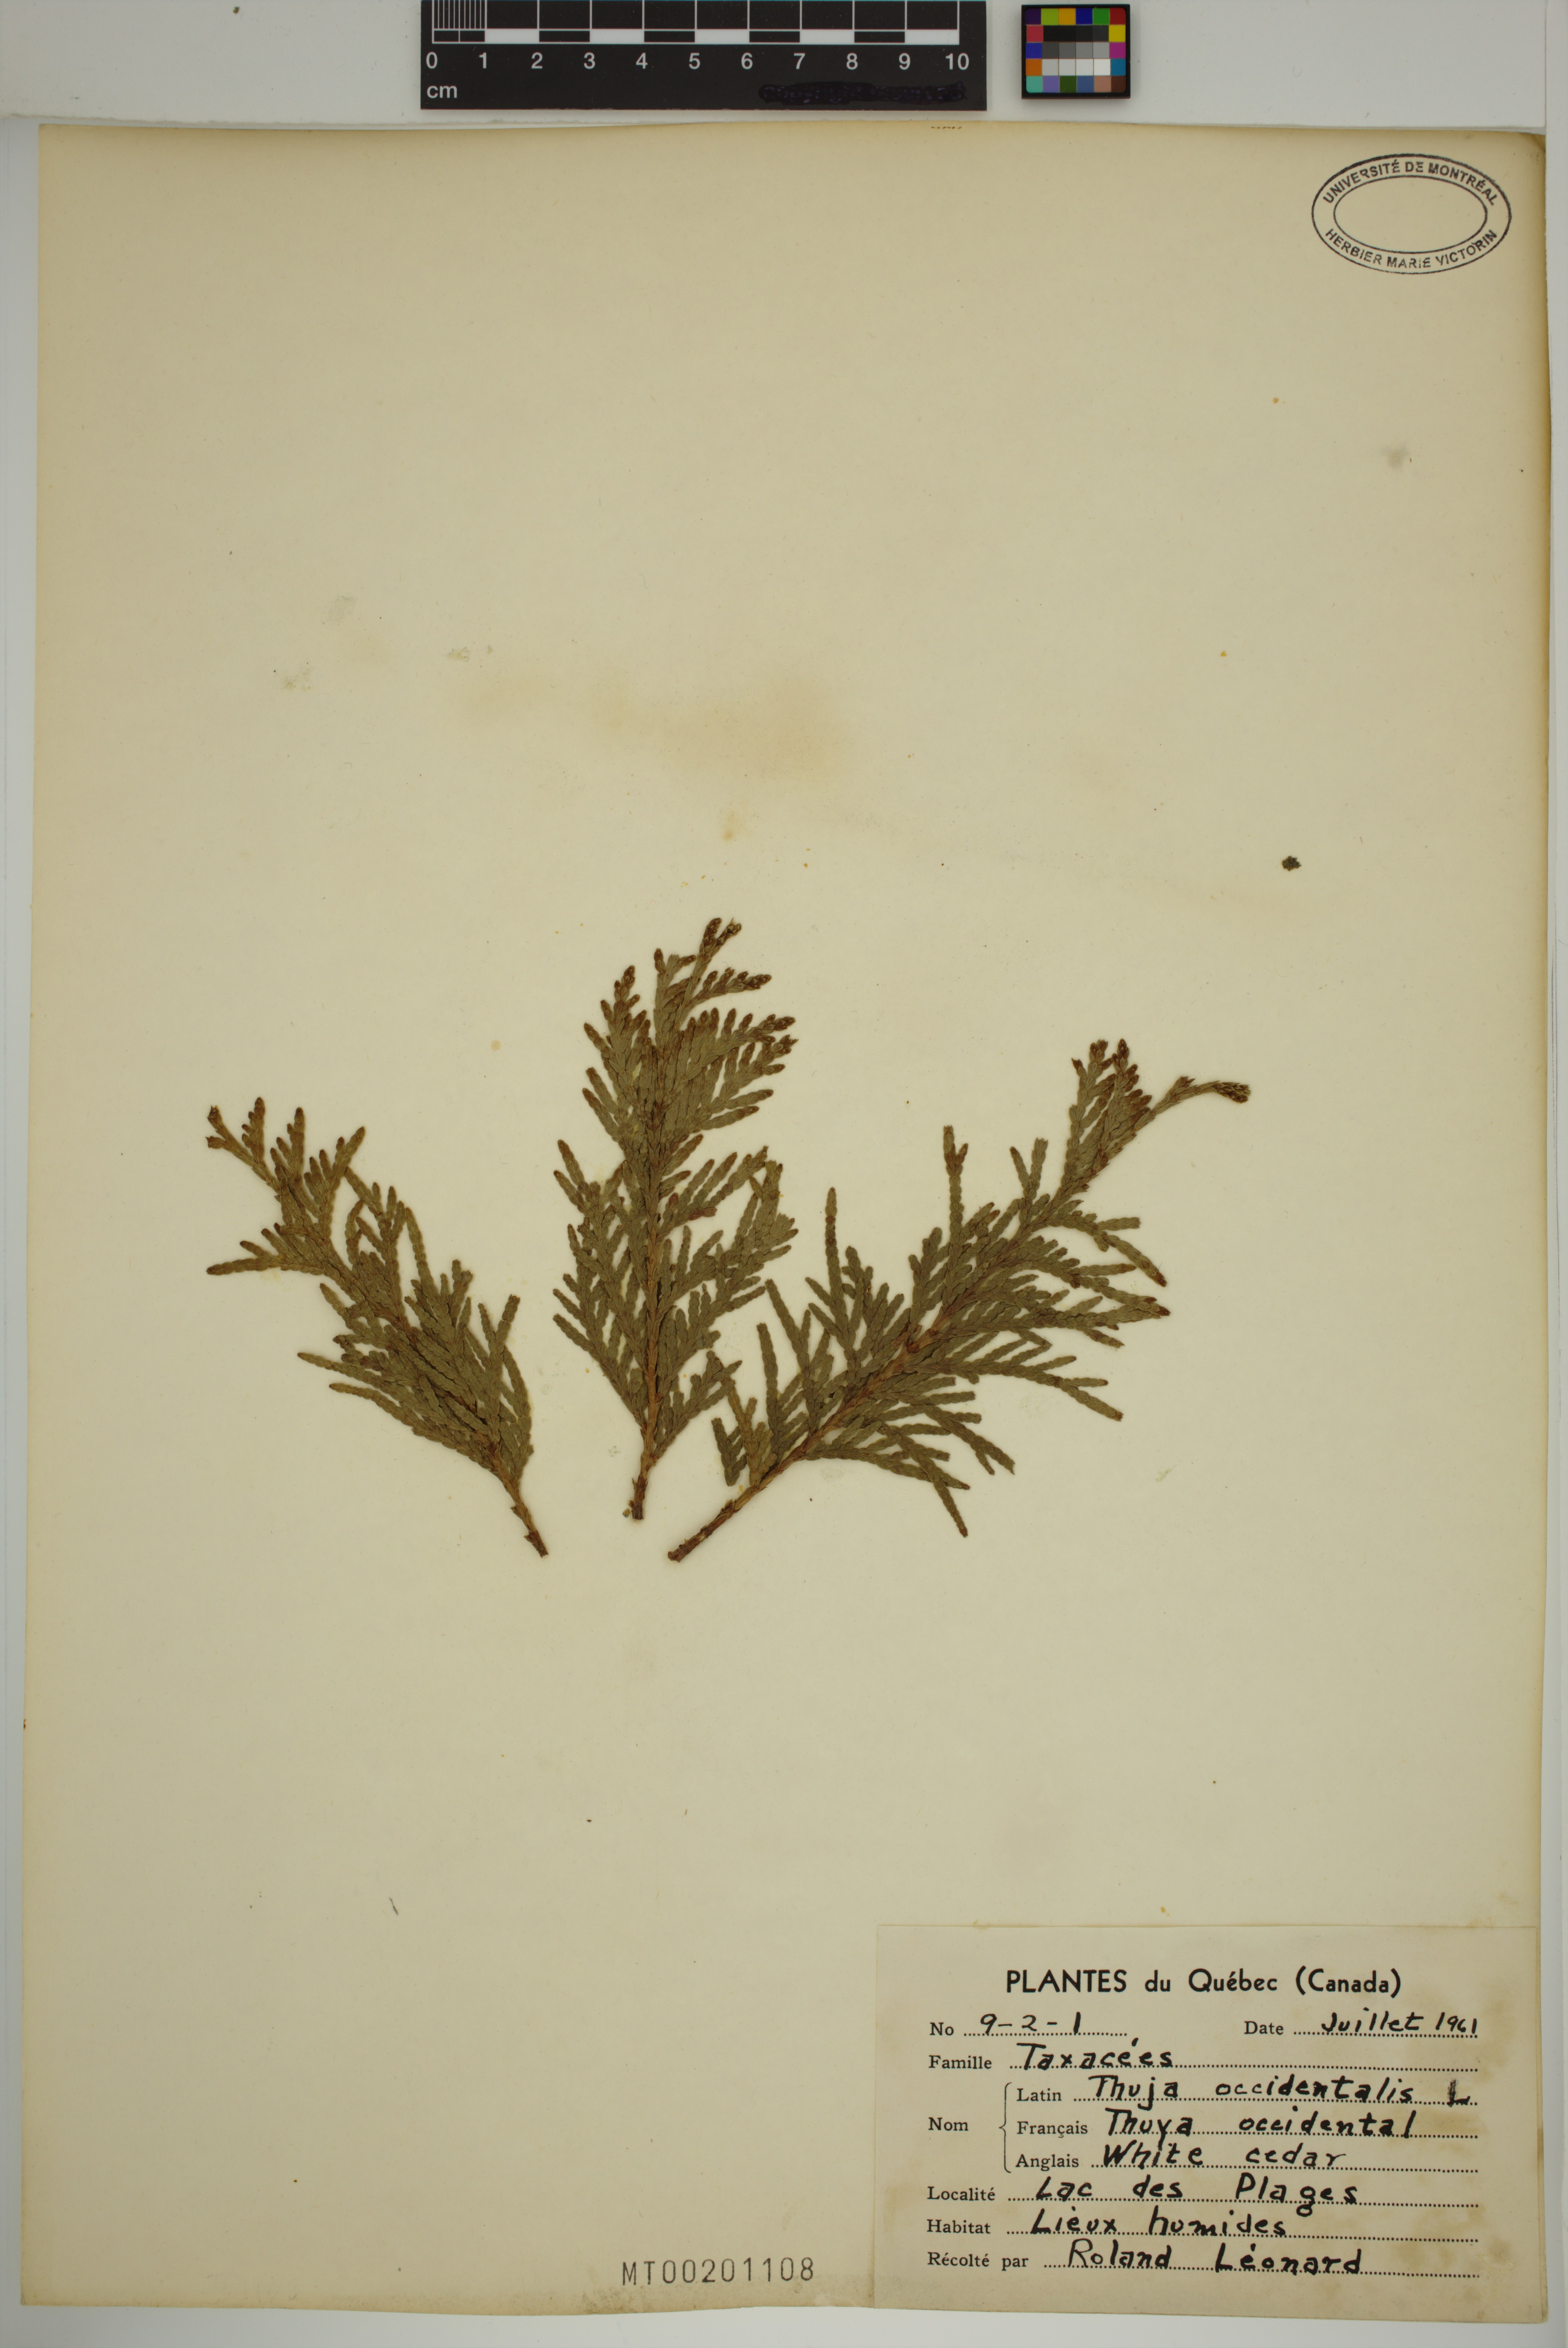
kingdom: Plantae
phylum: Tracheophyta
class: Pinopsida
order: Pinales
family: Cupressaceae
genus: Thuja
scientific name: Thuja occidentalis
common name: Northern white-cedar
